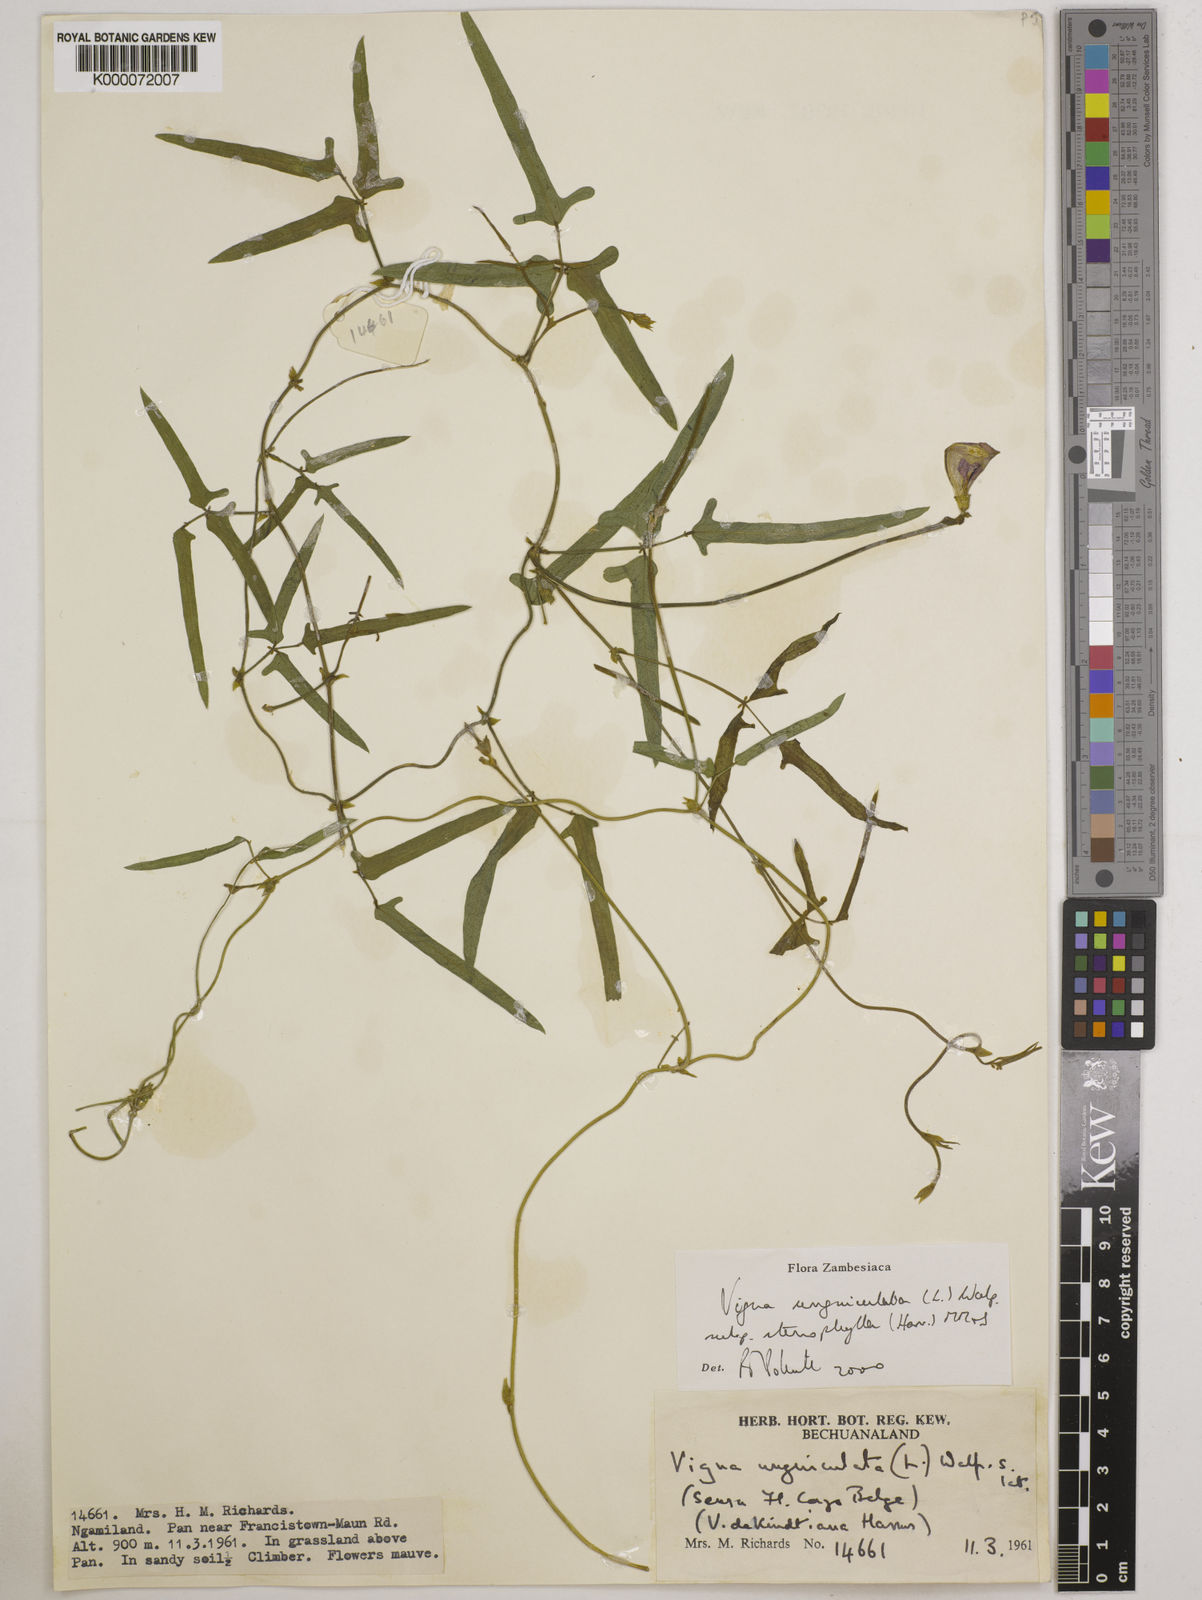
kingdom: Plantae
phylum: Tracheophyta
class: Magnoliopsida
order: Fabales
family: Fabaceae
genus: Vigna
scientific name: Vigna unguiculata
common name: Cowpea
